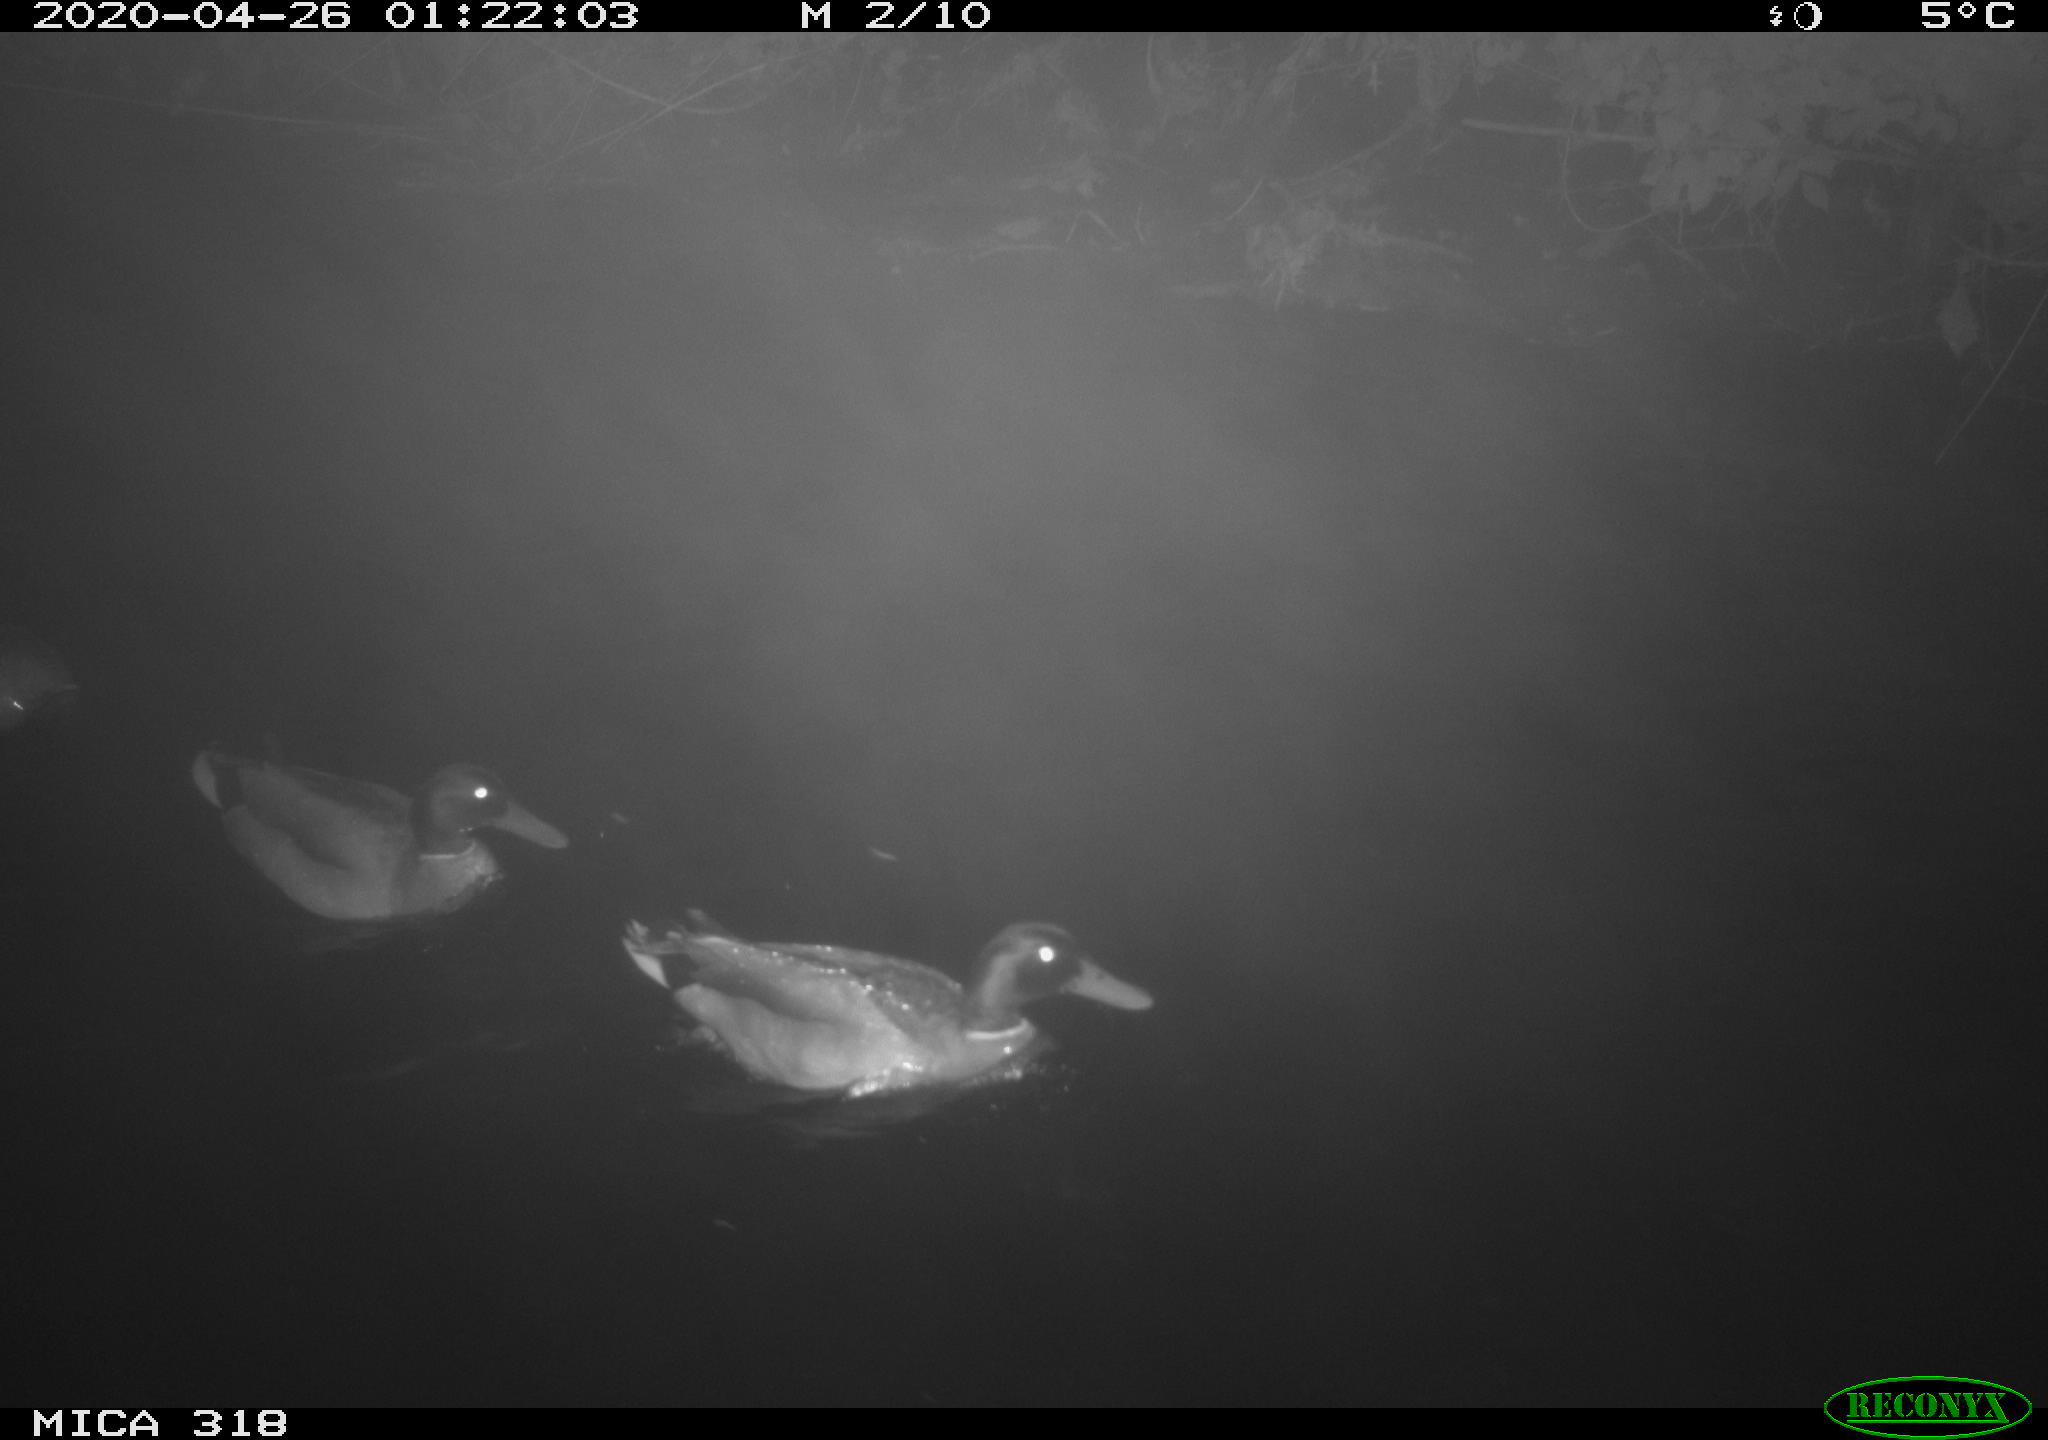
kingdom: Animalia
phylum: Chordata
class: Aves
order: Anseriformes
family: Anatidae
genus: Anas
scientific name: Anas platyrhynchos
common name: Mallard
